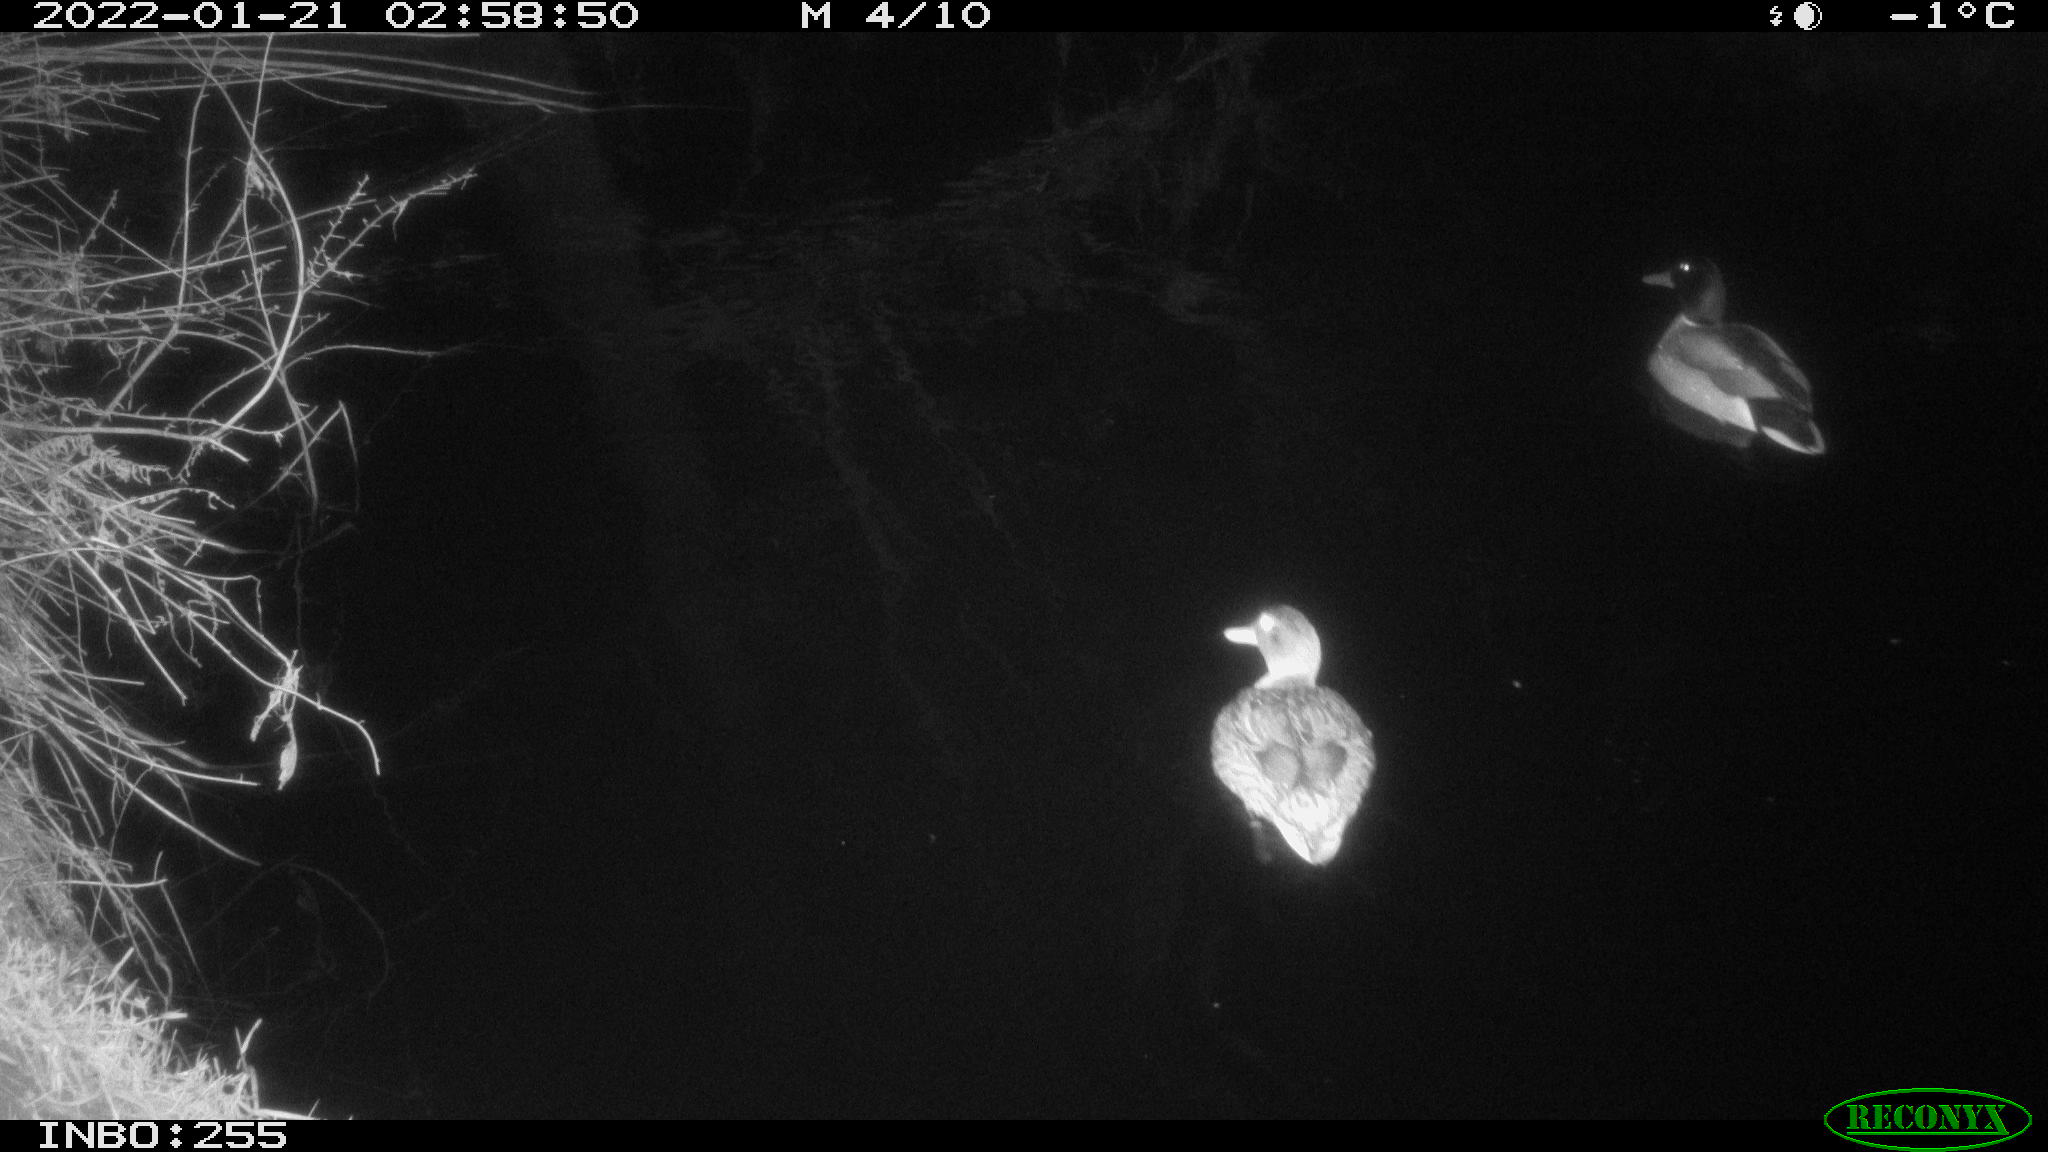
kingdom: Animalia
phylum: Chordata
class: Aves
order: Gruiformes
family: Rallidae
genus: Fulica
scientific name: Fulica atra
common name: Eurasian coot
